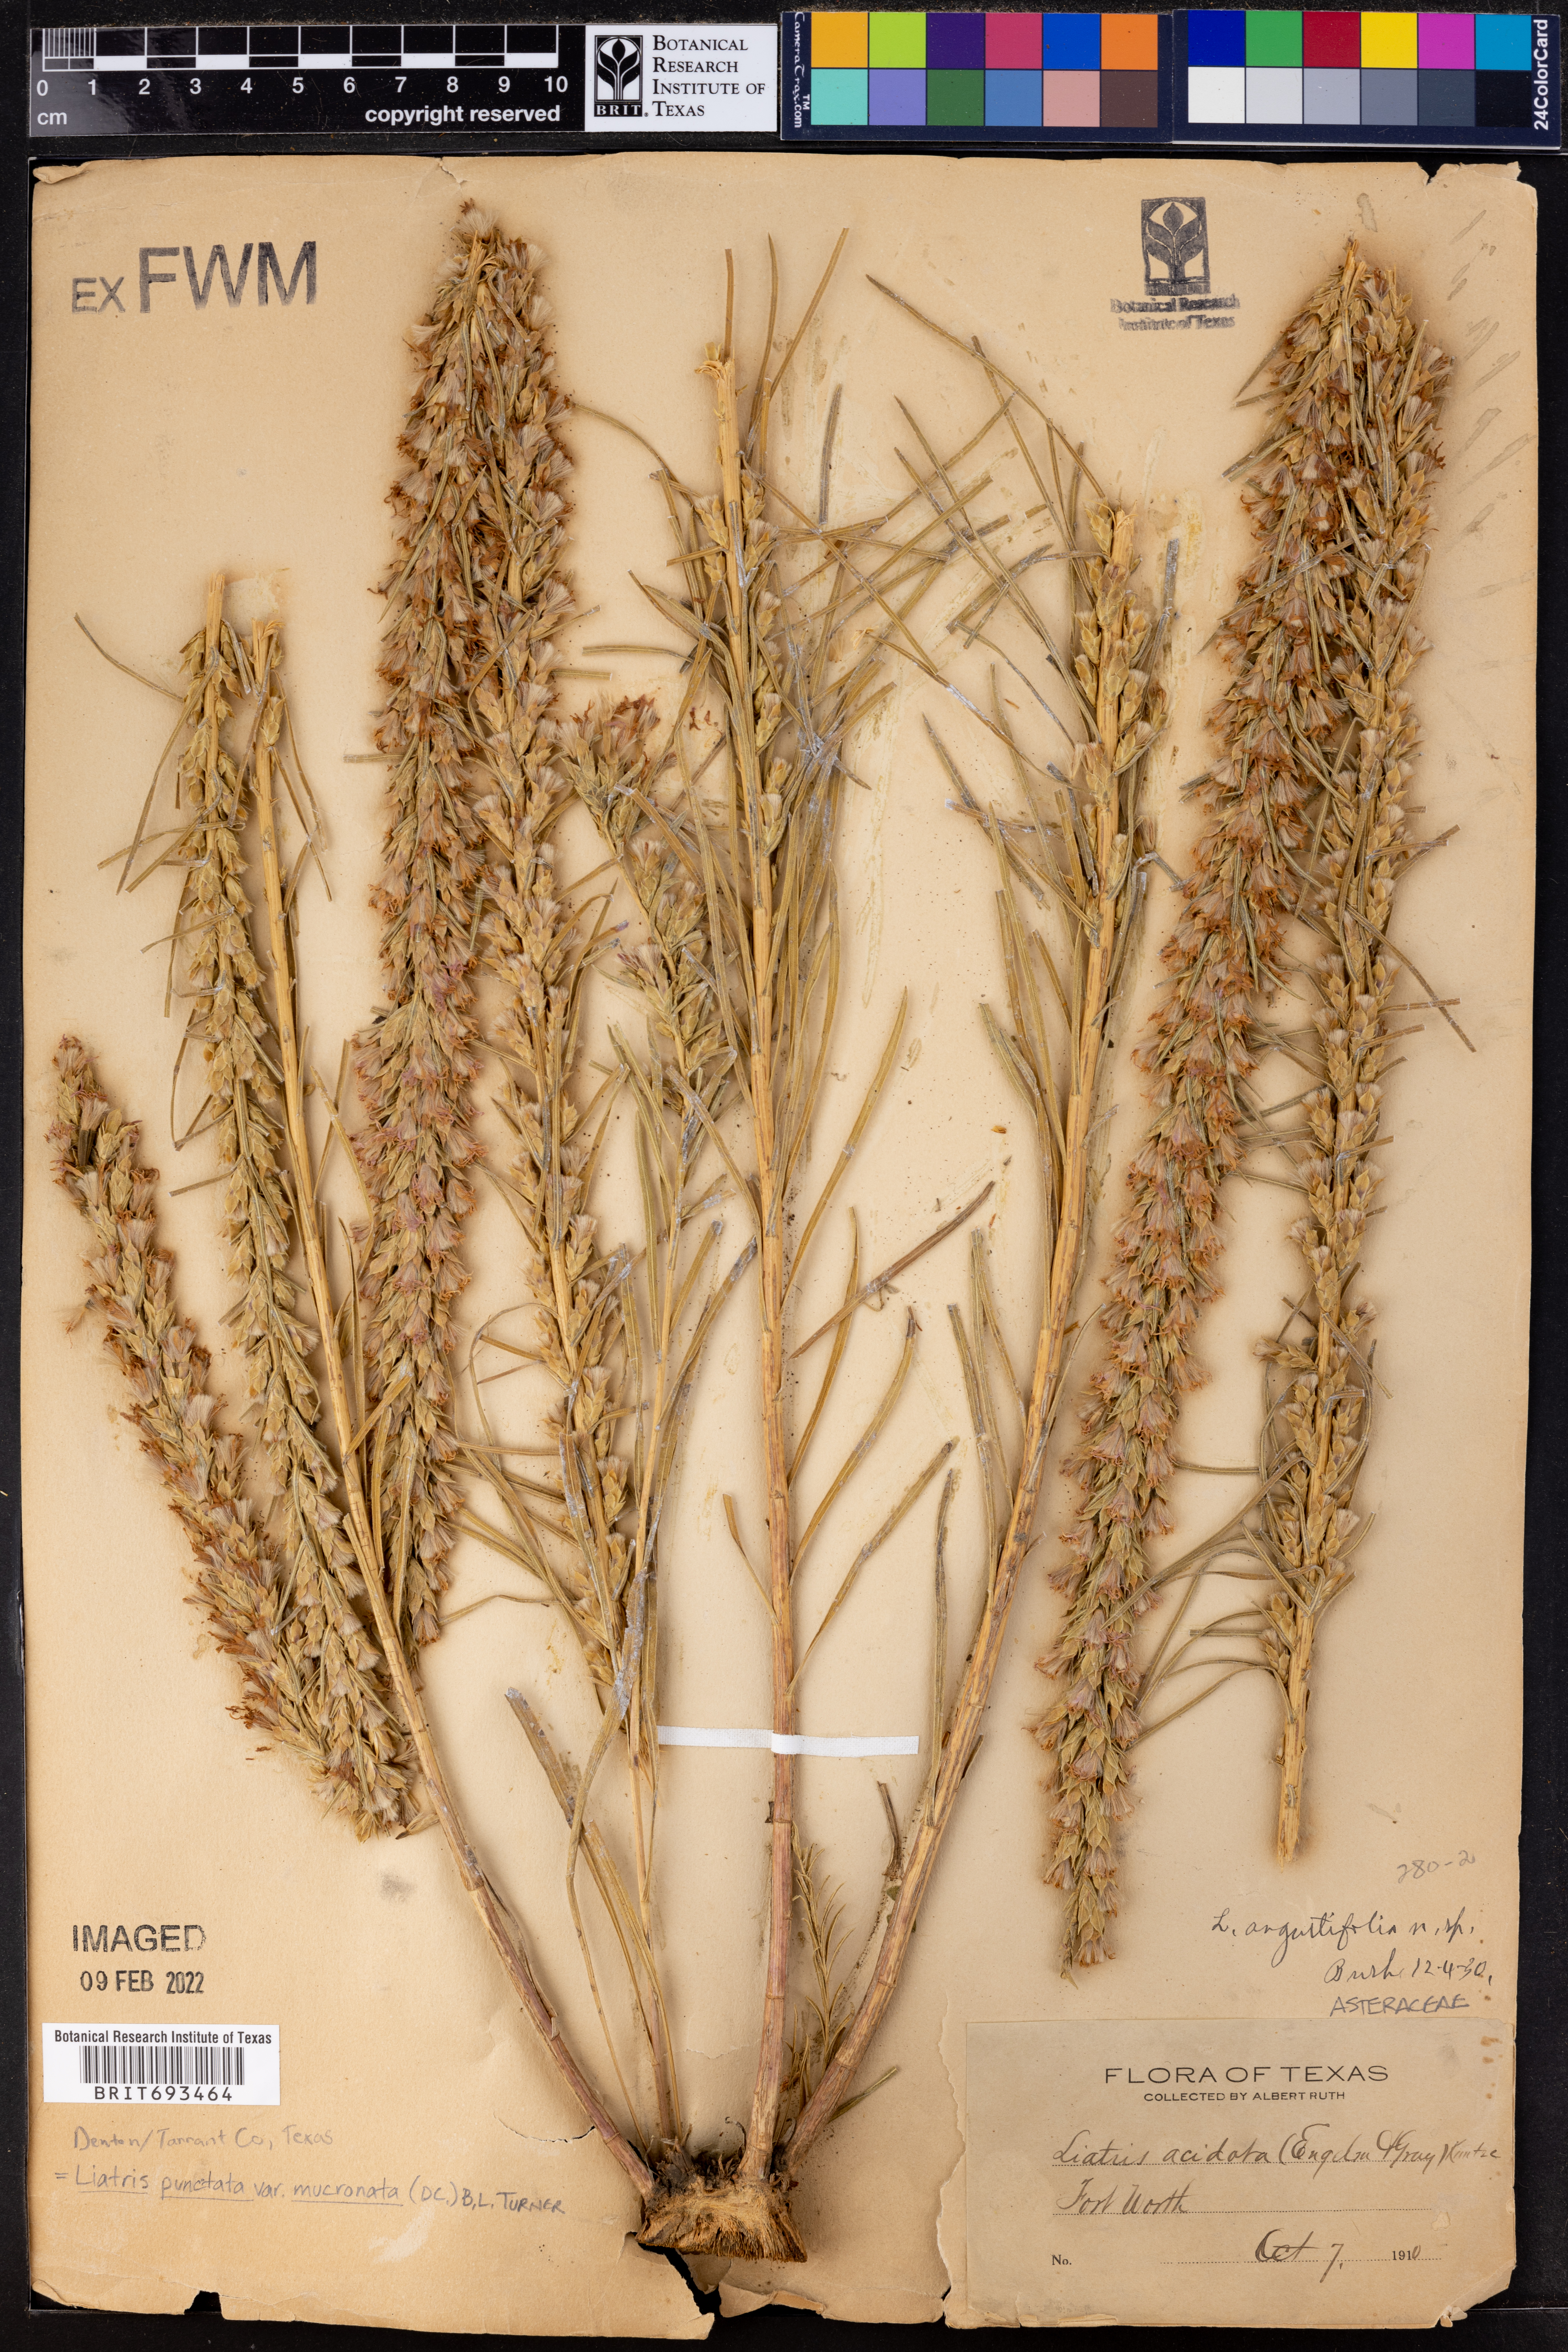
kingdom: Plantae
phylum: Tracheophyta
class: Magnoliopsida
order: Asterales
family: Asteraceae
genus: Liatris
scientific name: Liatris punctata
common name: Dotted gayfeather
